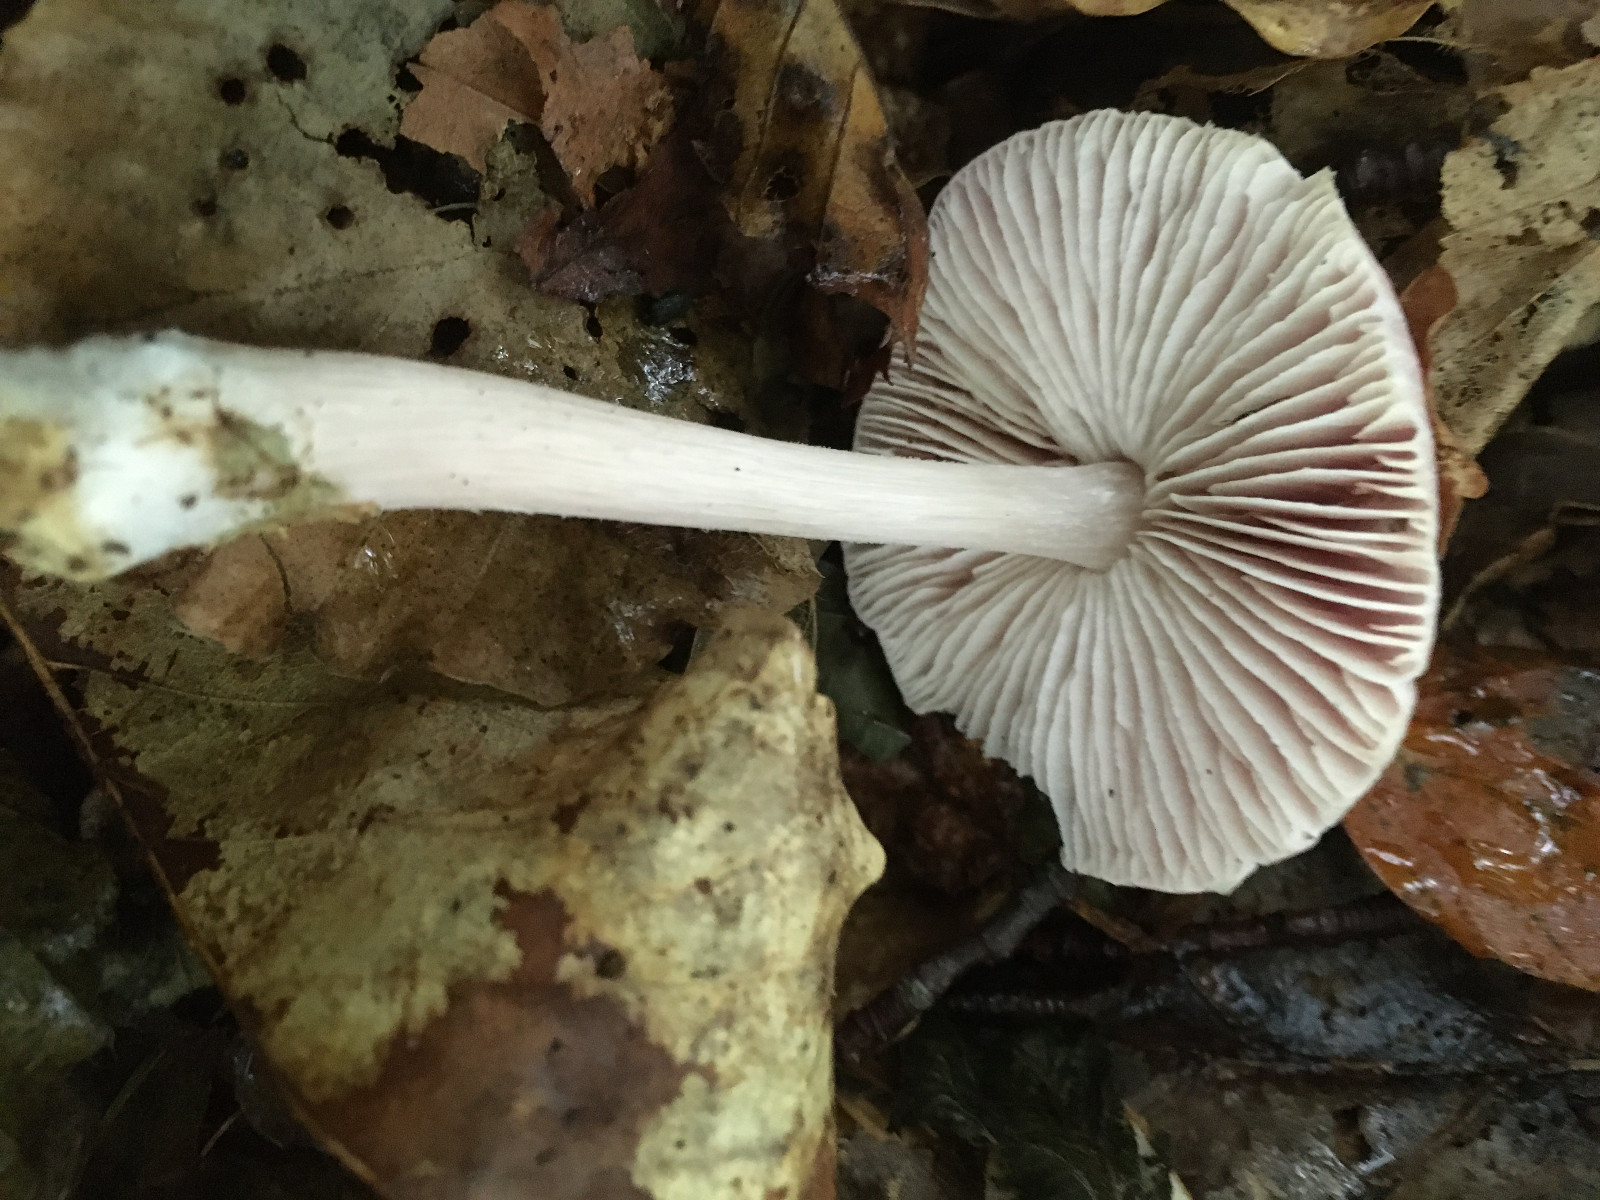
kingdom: Fungi
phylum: Basidiomycota
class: Agaricomycetes
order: Agaricales
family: Mycenaceae
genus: Mycena
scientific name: Mycena rosea
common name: rosa huesvamp
